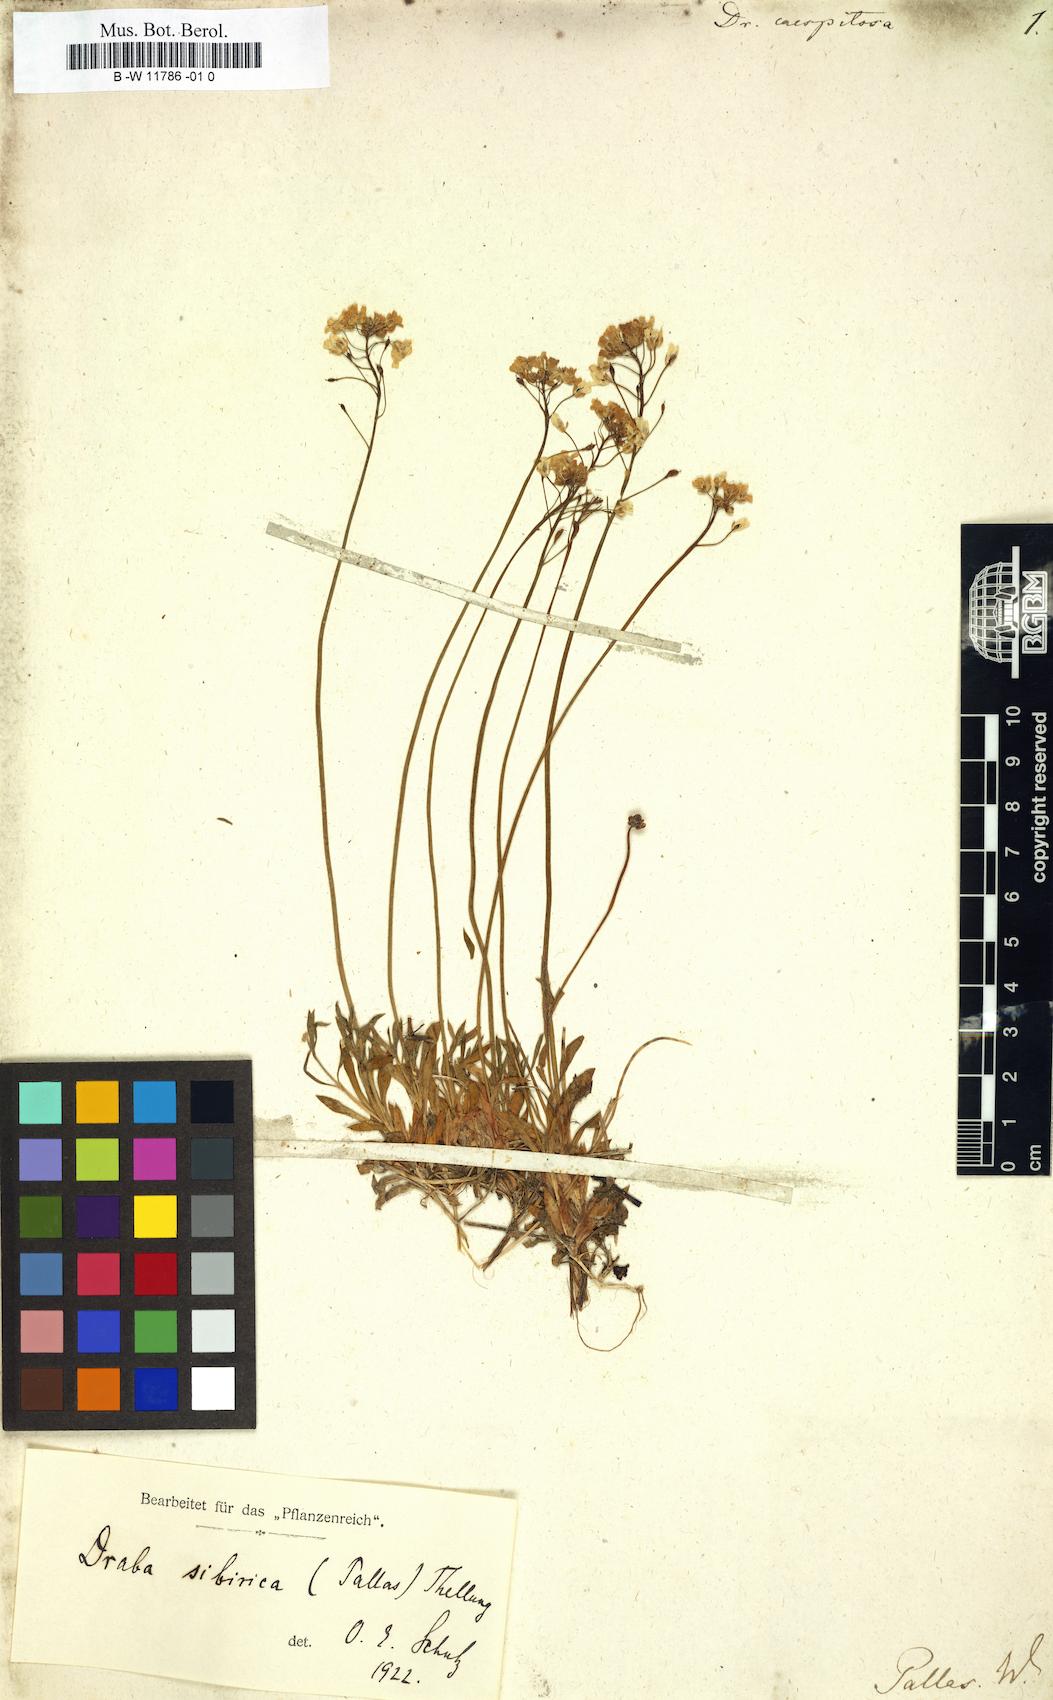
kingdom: Plantae
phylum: Tracheophyta
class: Magnoliopsida
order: Brassicales
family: Brassicaceae
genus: Draba
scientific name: Draba caespitosa
